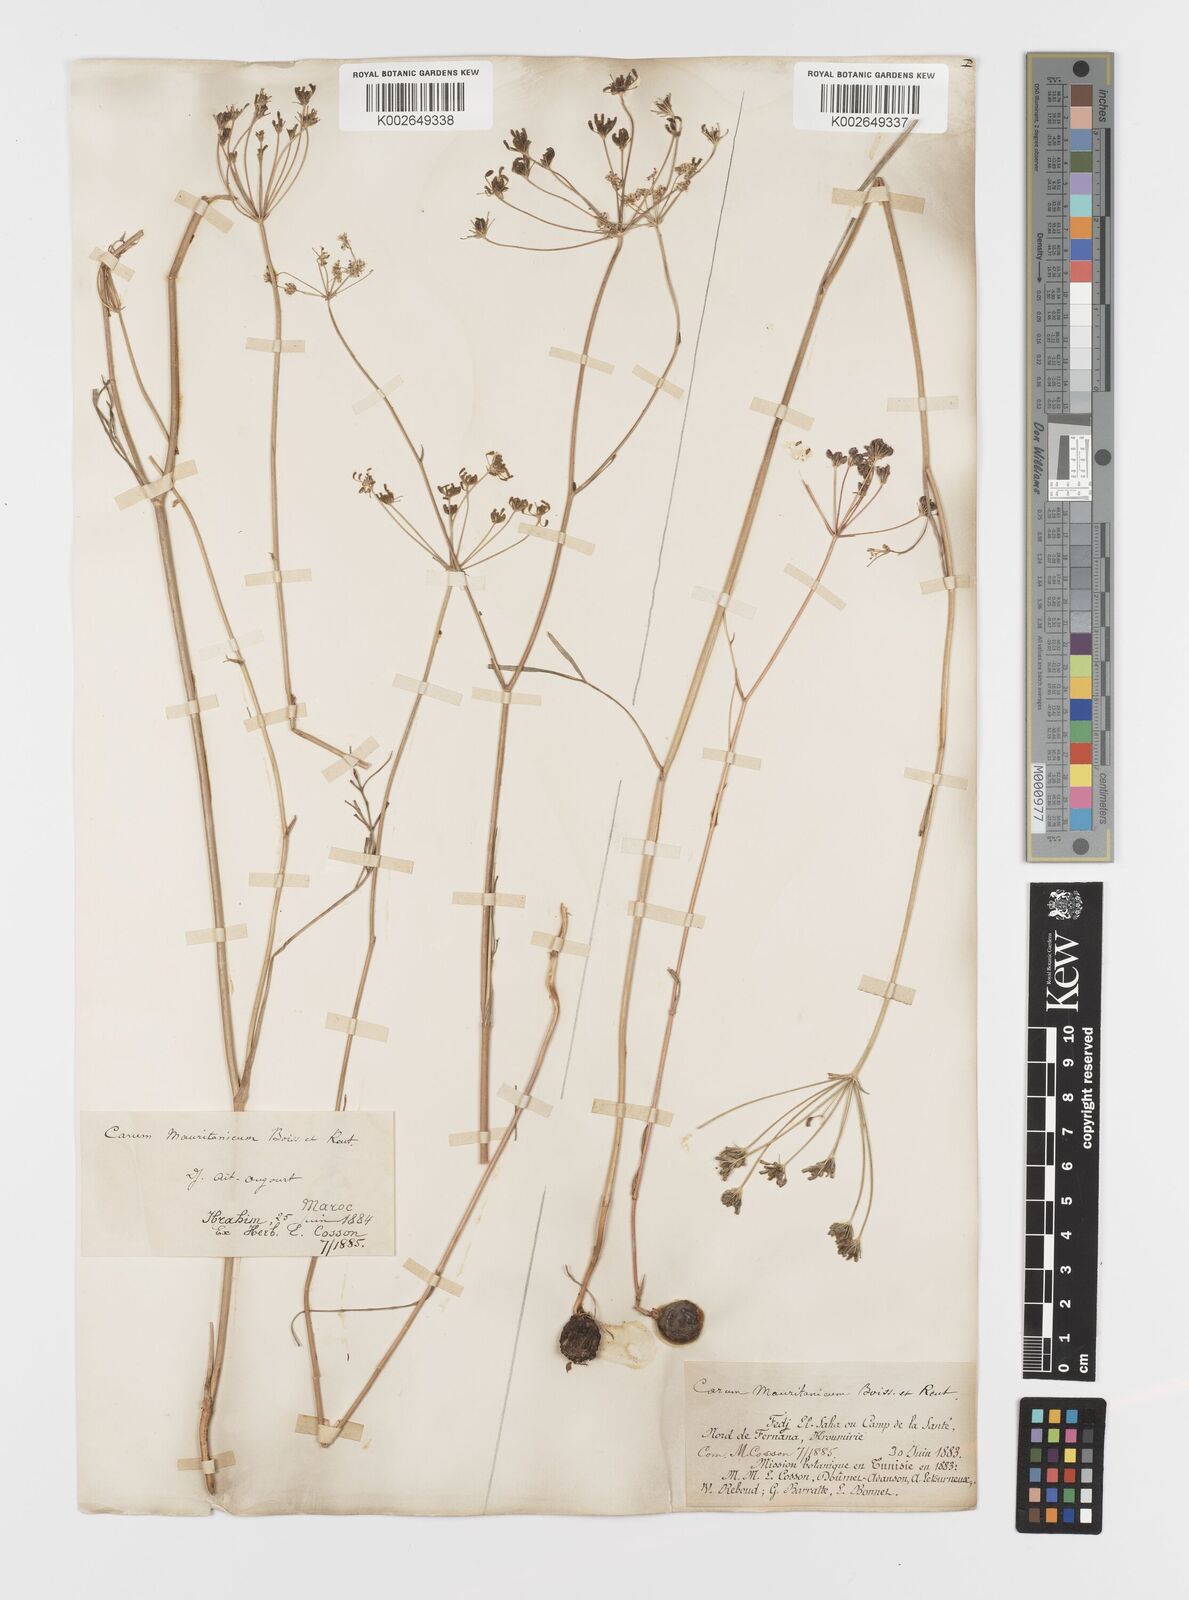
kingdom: Plantae
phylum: Tracheophyta
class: Magnoliopsida
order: Apiales
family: Apiaceae
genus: Bunium
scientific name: Bunium fontanesii
